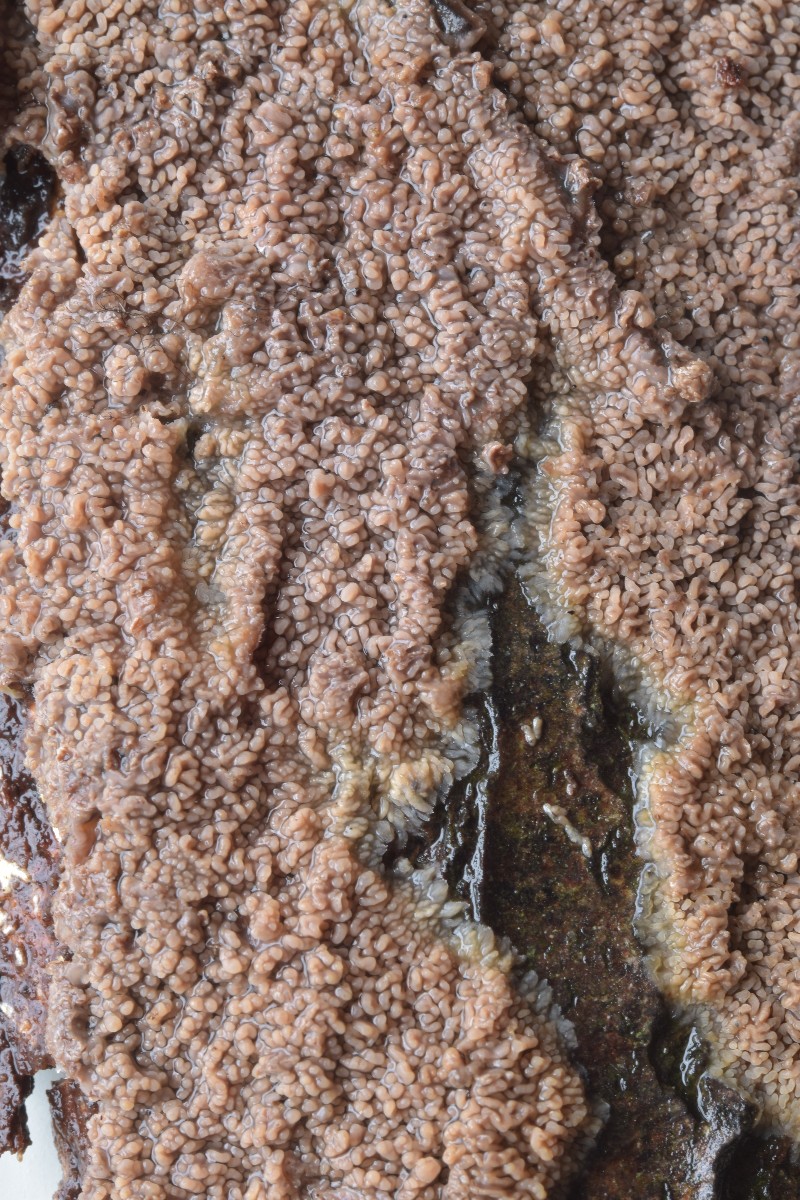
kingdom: Fungi
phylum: Basidiomycota
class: Agaricomycetes
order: Polyporales
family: Meruliaceae
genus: Phlebia
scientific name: Phlebia radiata
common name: stråle-åresvamp
